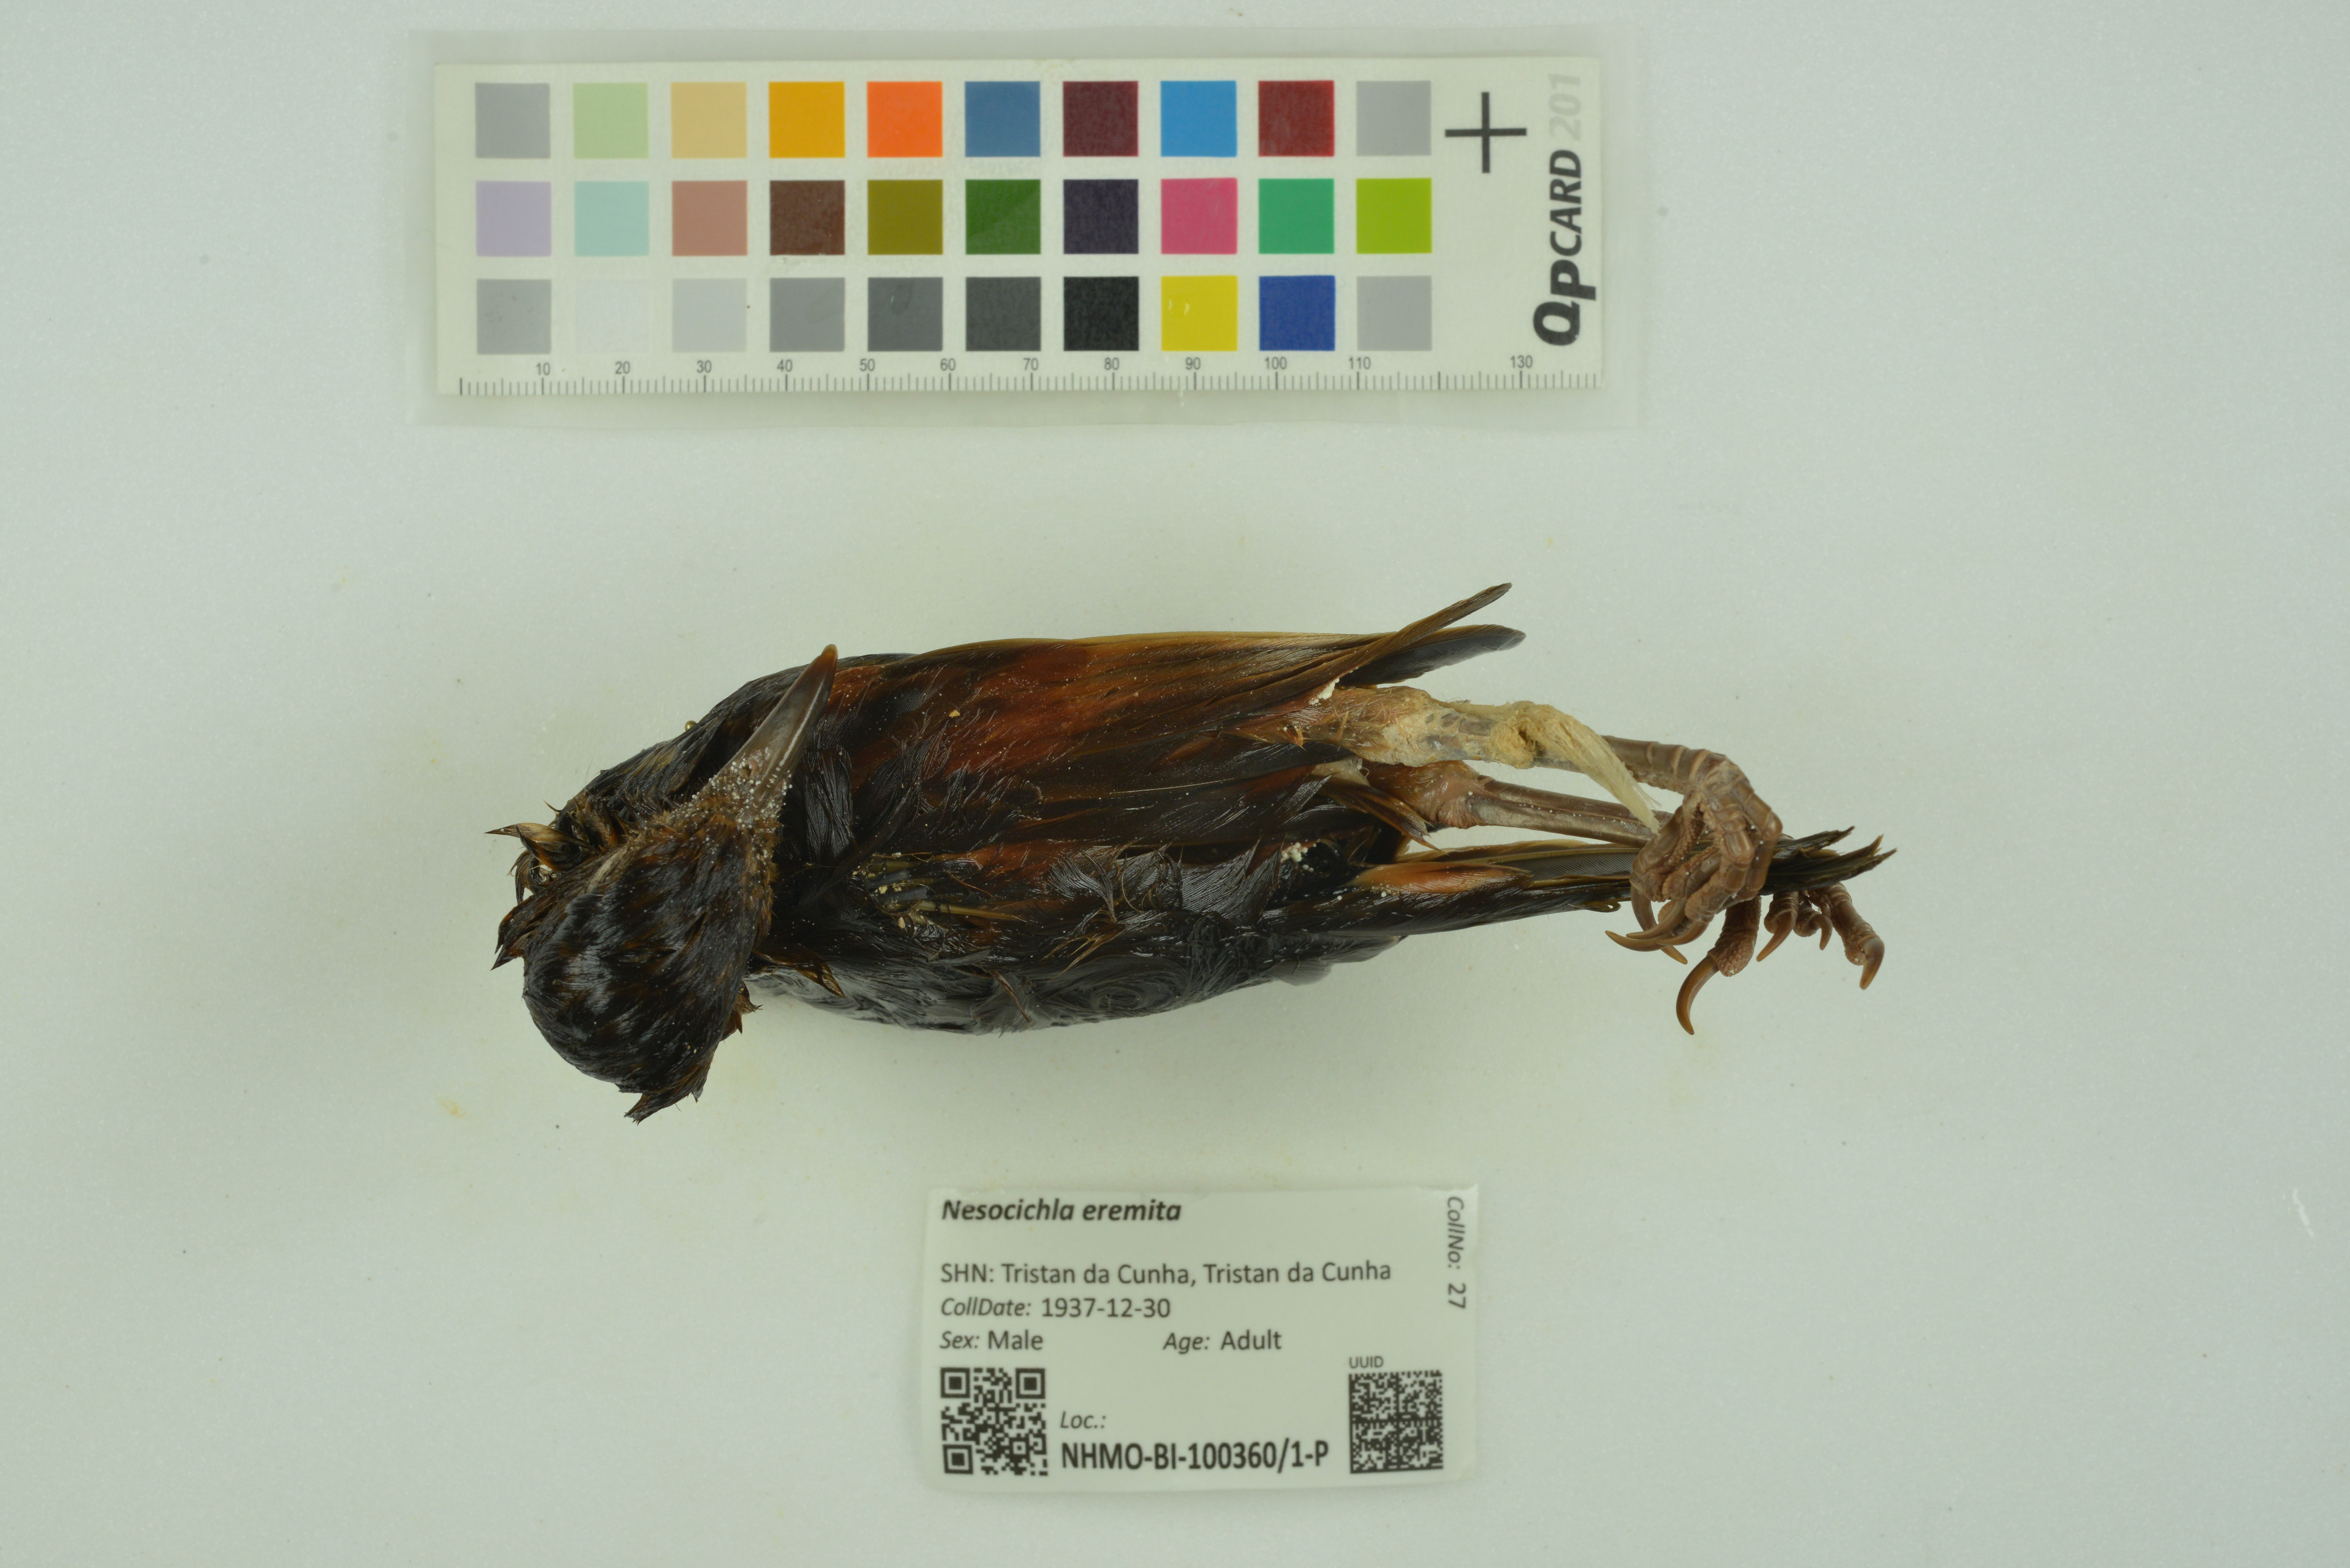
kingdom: Animalia
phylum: Chordata
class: Aves
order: Passeriformes
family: Turdidae
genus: Nesocichla
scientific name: Nesocichla eremita
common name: Tristan thrush
